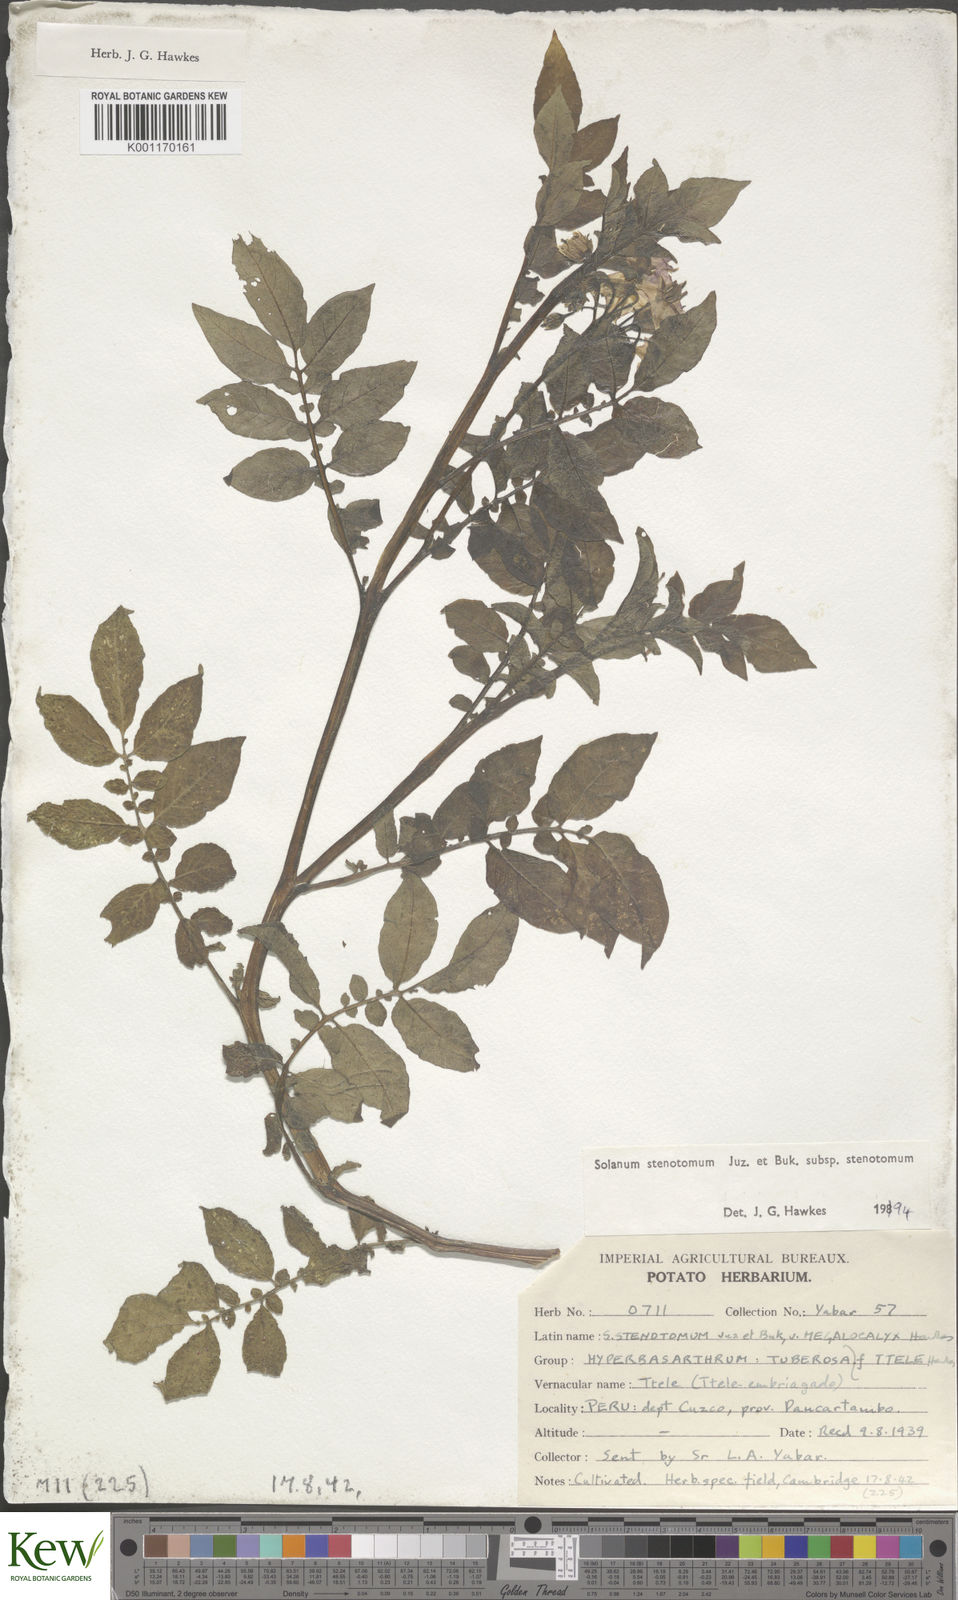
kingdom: Plantae
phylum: Tracheophyta
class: Magnoliopsida
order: Solanales
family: Solanaceae
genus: Solanum
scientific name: Solanum tuberosum
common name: Potato
